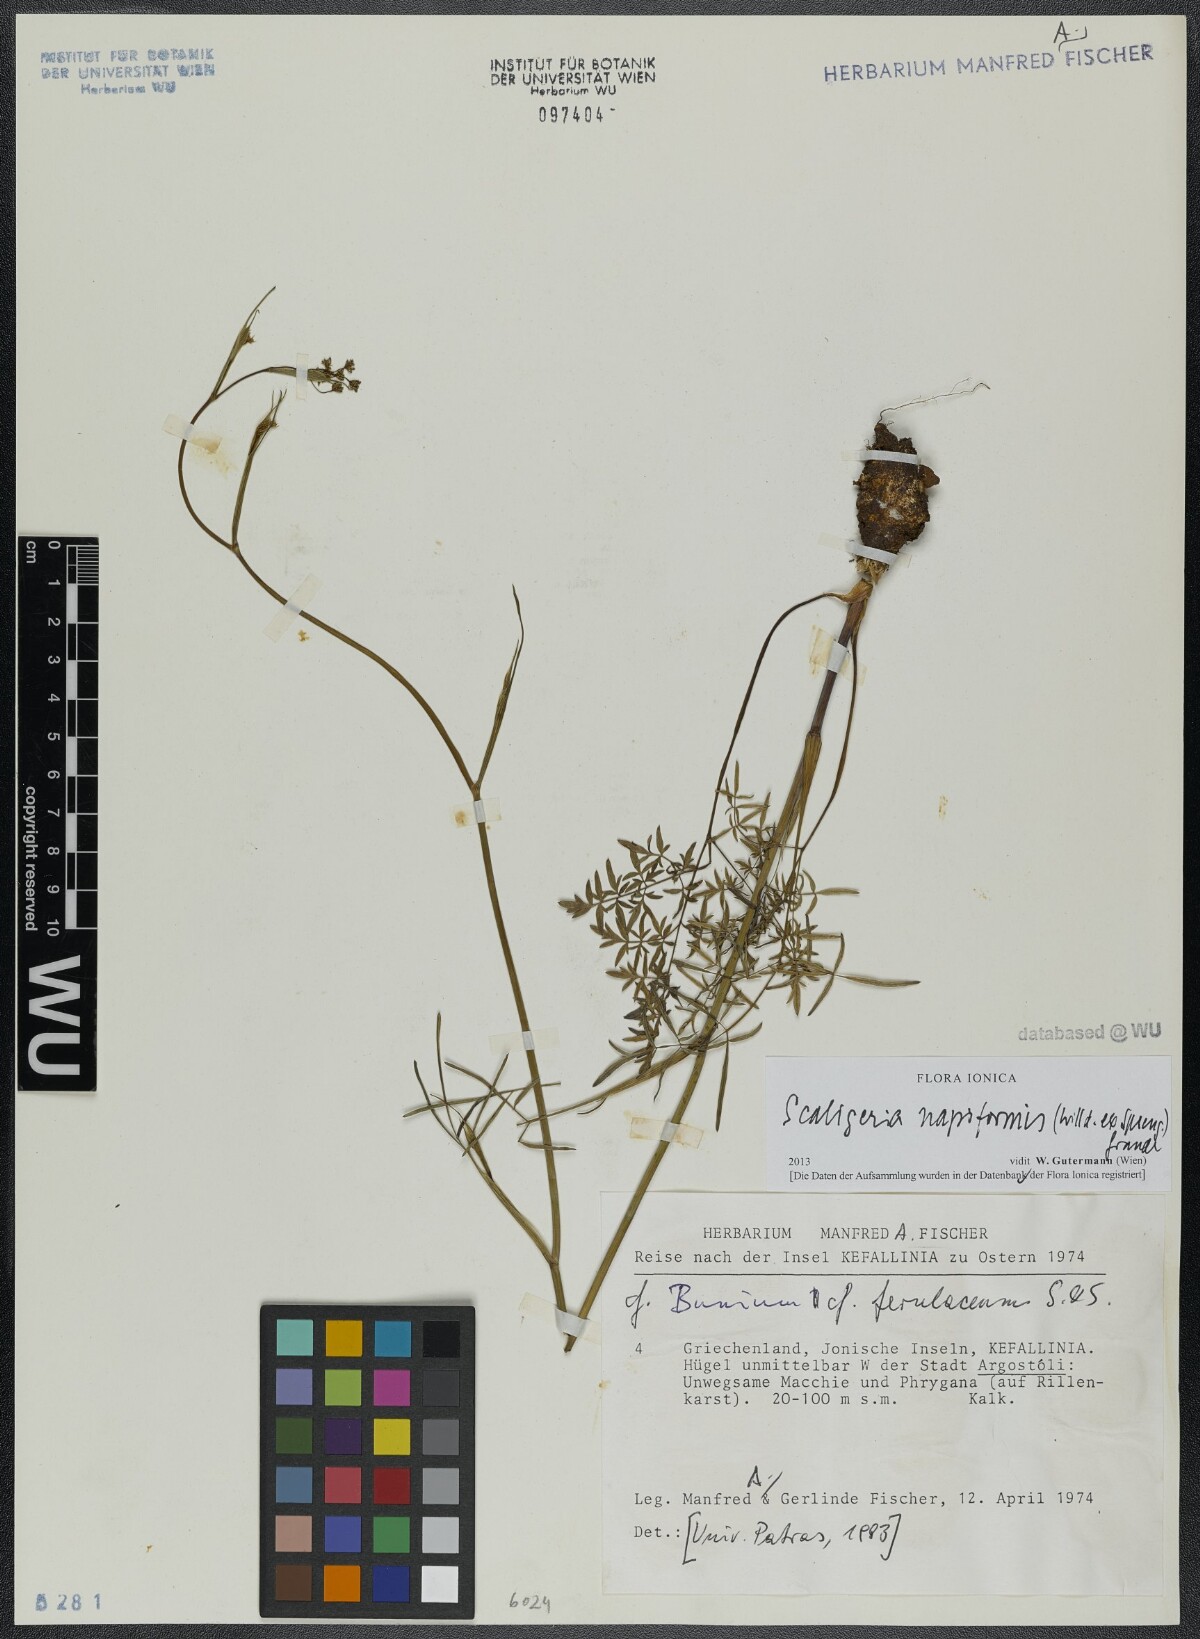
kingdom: Plantae
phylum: Tracheophyta
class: Magnoliopsida
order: Apiales
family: Apiaceae
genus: Scaligeria
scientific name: Scaligeria napiformis
